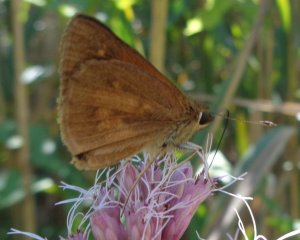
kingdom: Animalia
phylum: Arthropoda
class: Insecta
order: Lepidoptera
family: Hesperiidae
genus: Poanes
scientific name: Poanes viator
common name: Broad-winged Skipper
